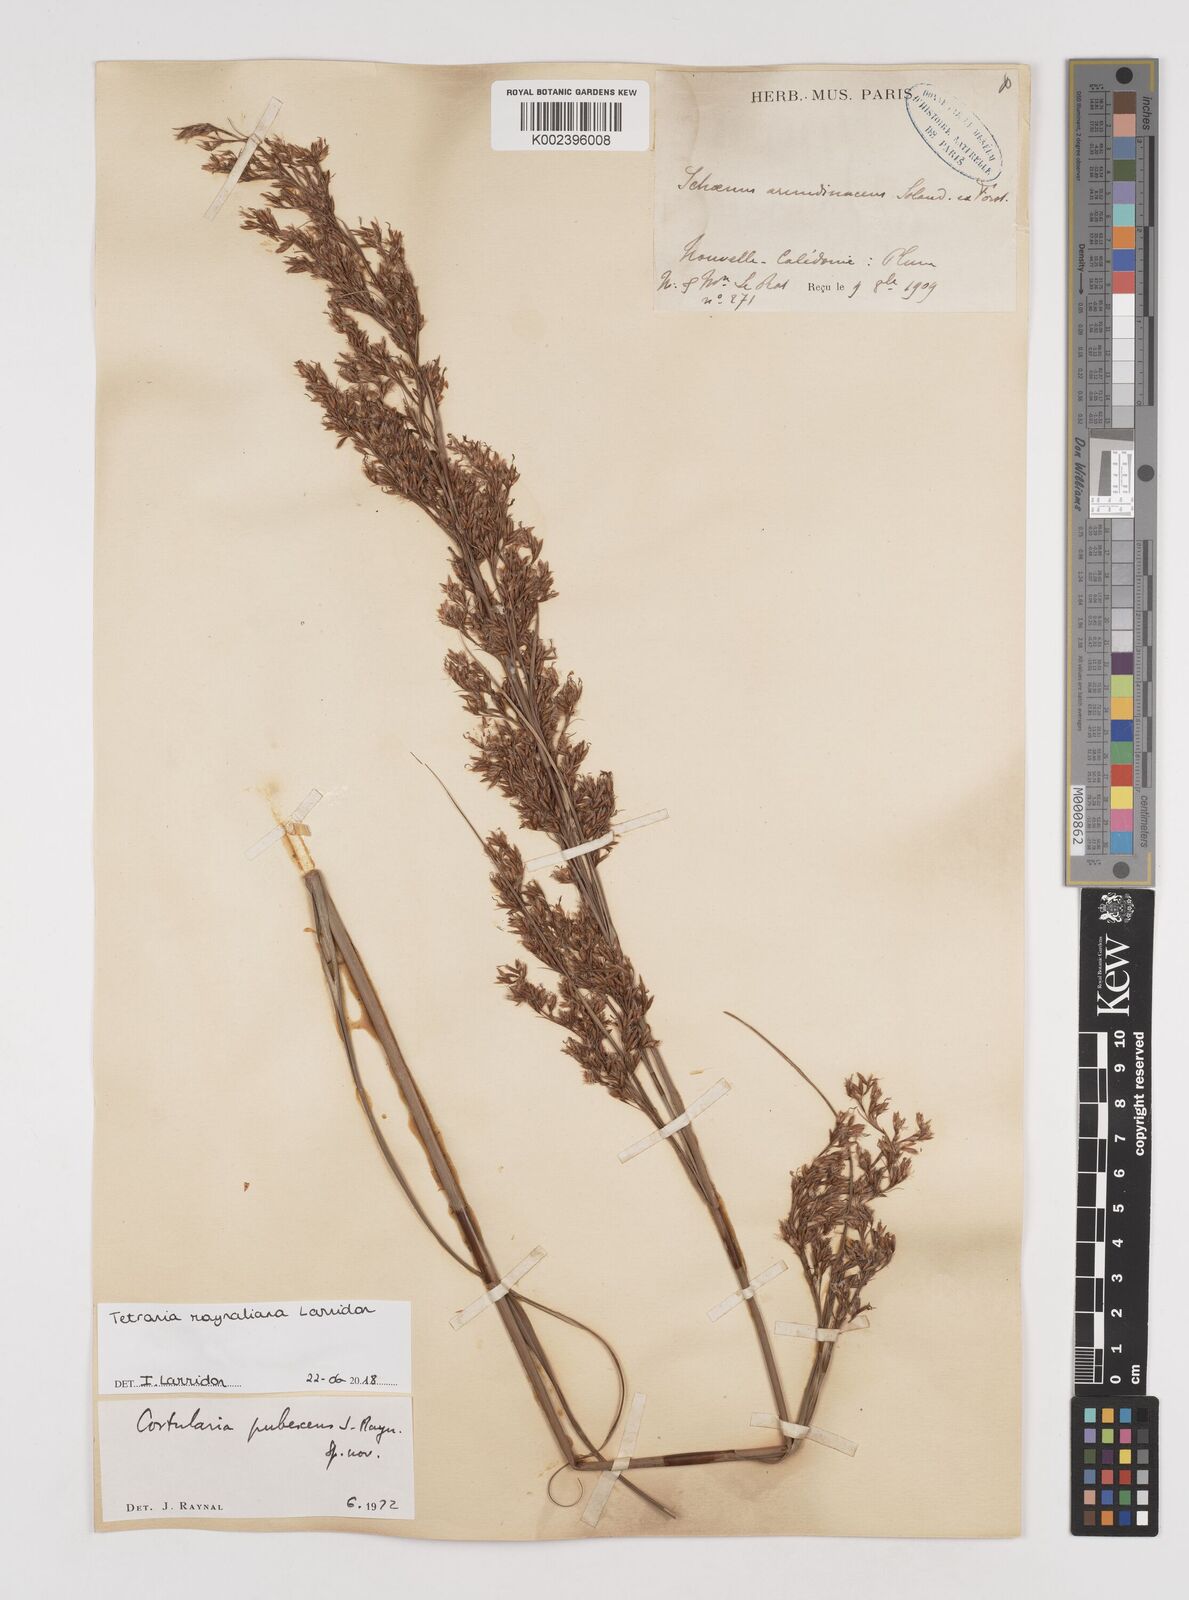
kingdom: Plantae
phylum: Tracheophyta
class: Liliopsida
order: Poales
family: Cyperaceae
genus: Tetraria
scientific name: Tetraria raynaliana
